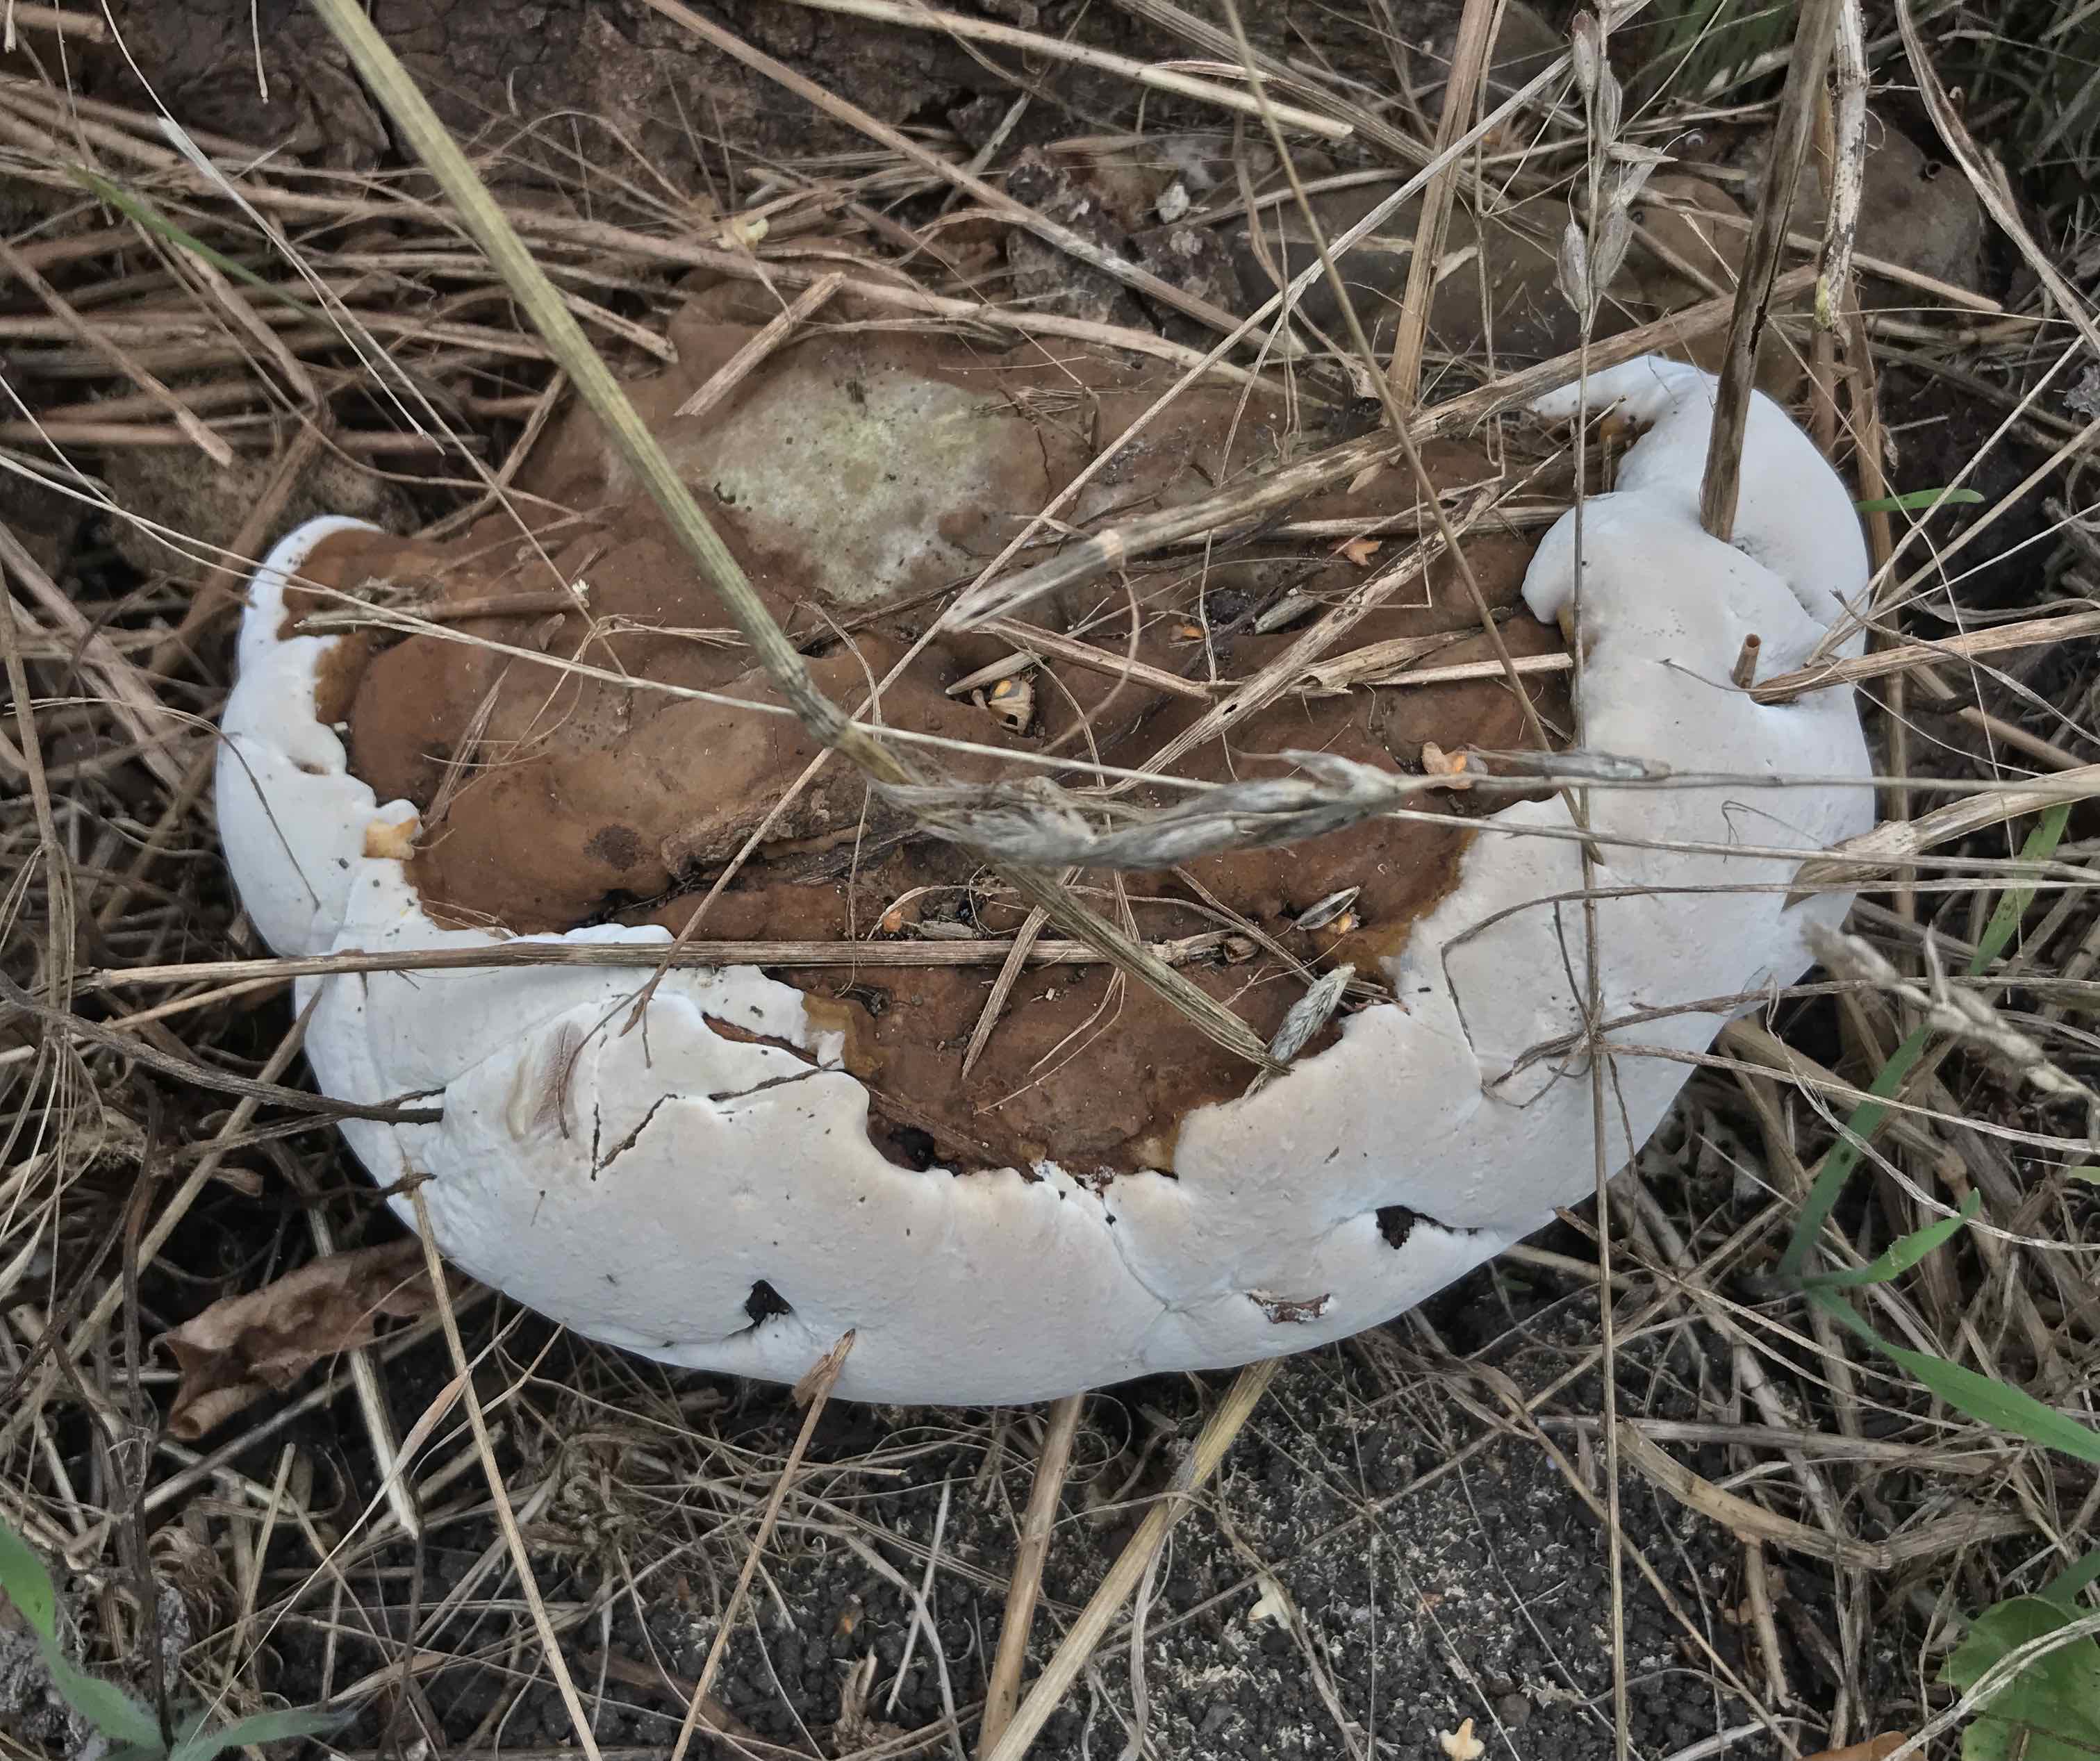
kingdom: Fungi
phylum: Basidiomycota
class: Agaricomycetes
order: Polyporales
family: Polyporaceae
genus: Ganoderma
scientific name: Ganoderma applanatum
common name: flad lakporesvamp
